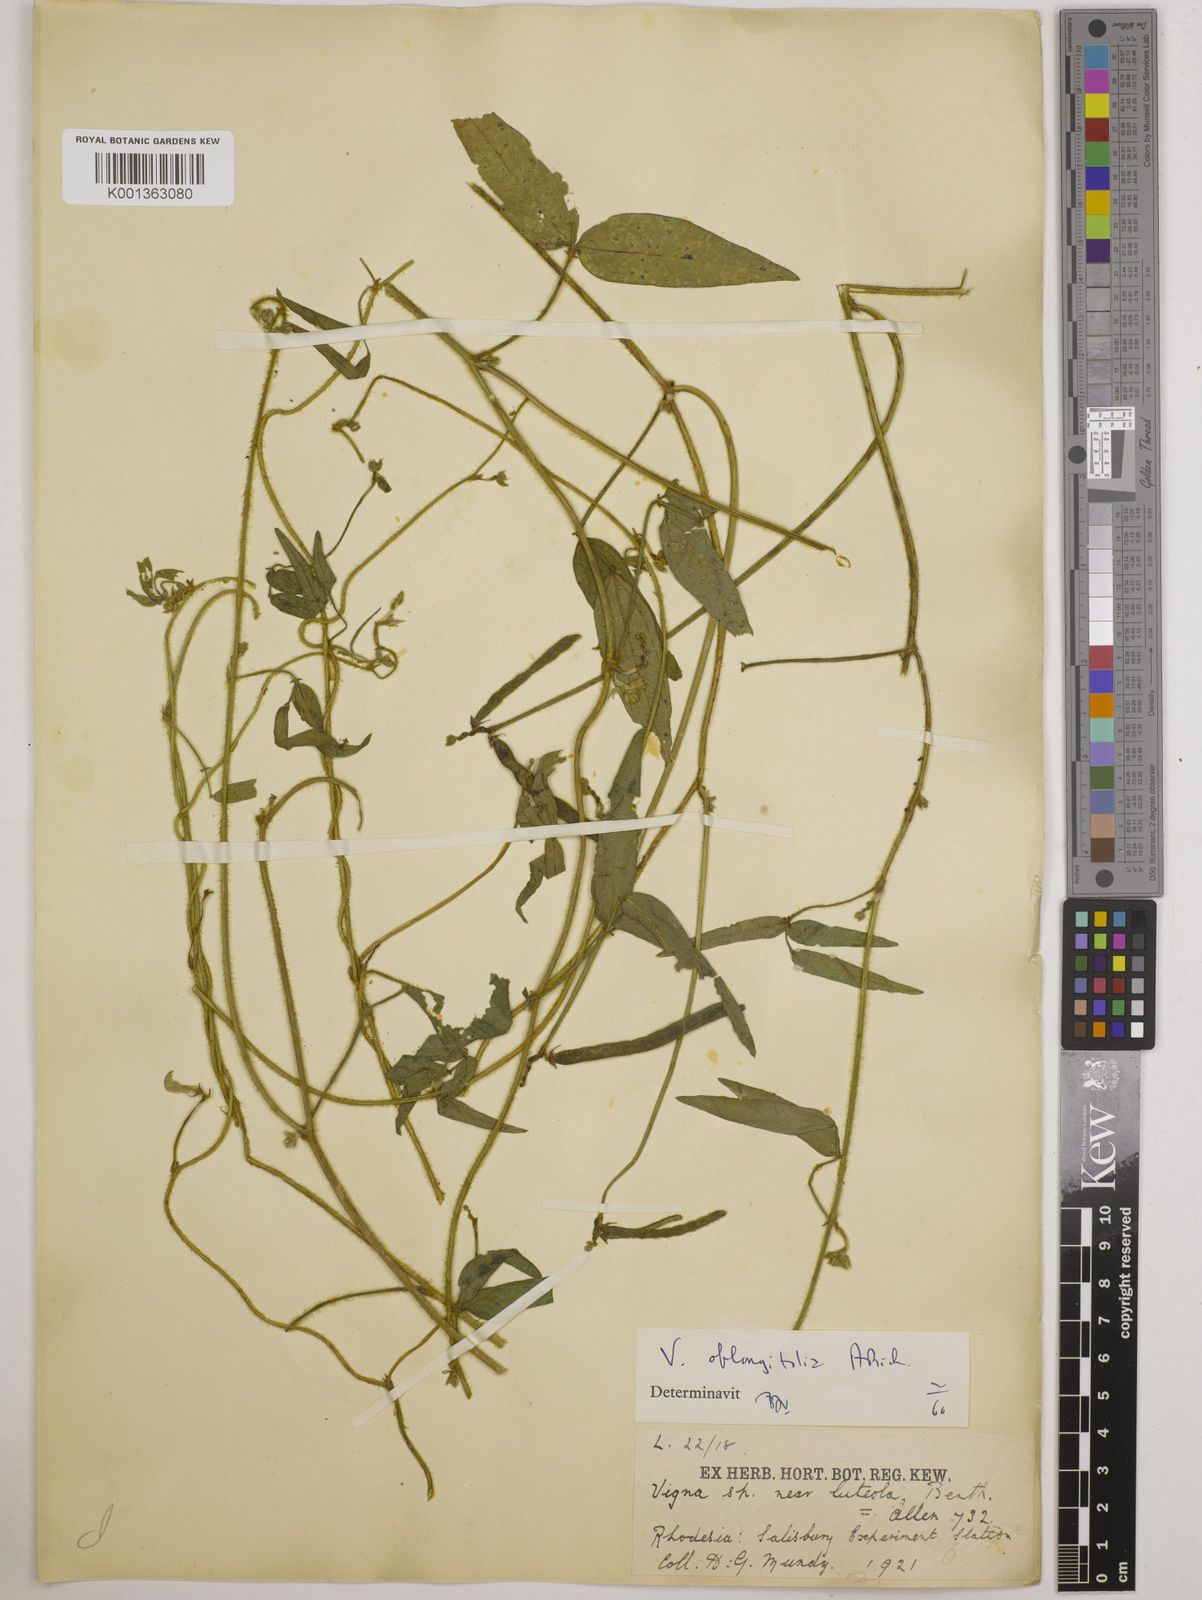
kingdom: Plantae
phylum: Tracheophyta
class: Magnoliopsida
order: Fabales
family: Fabaceae
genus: Vigna
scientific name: Vigna oblongifolia
